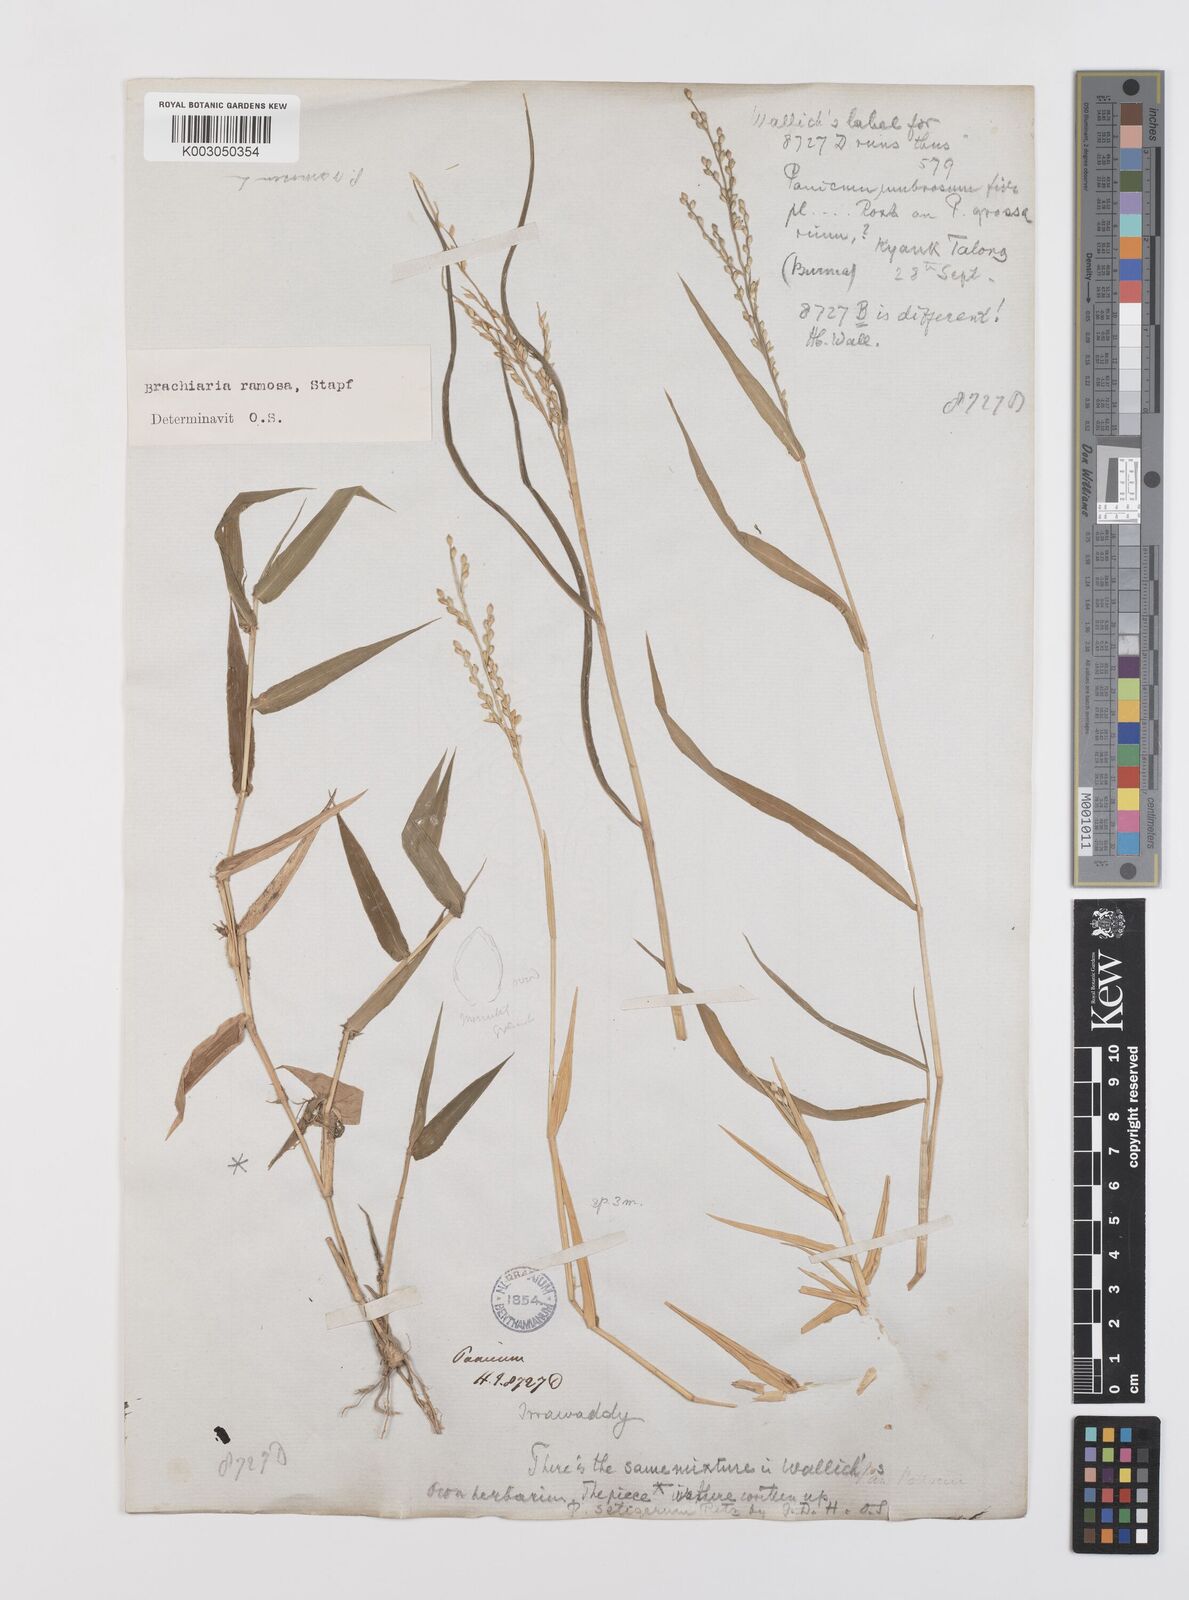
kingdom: Plantae
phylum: Tracheophyta
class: Liliopsida
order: Poales
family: Poaceae
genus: Urochloa
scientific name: Urochloa ramosa
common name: Browntop millet
